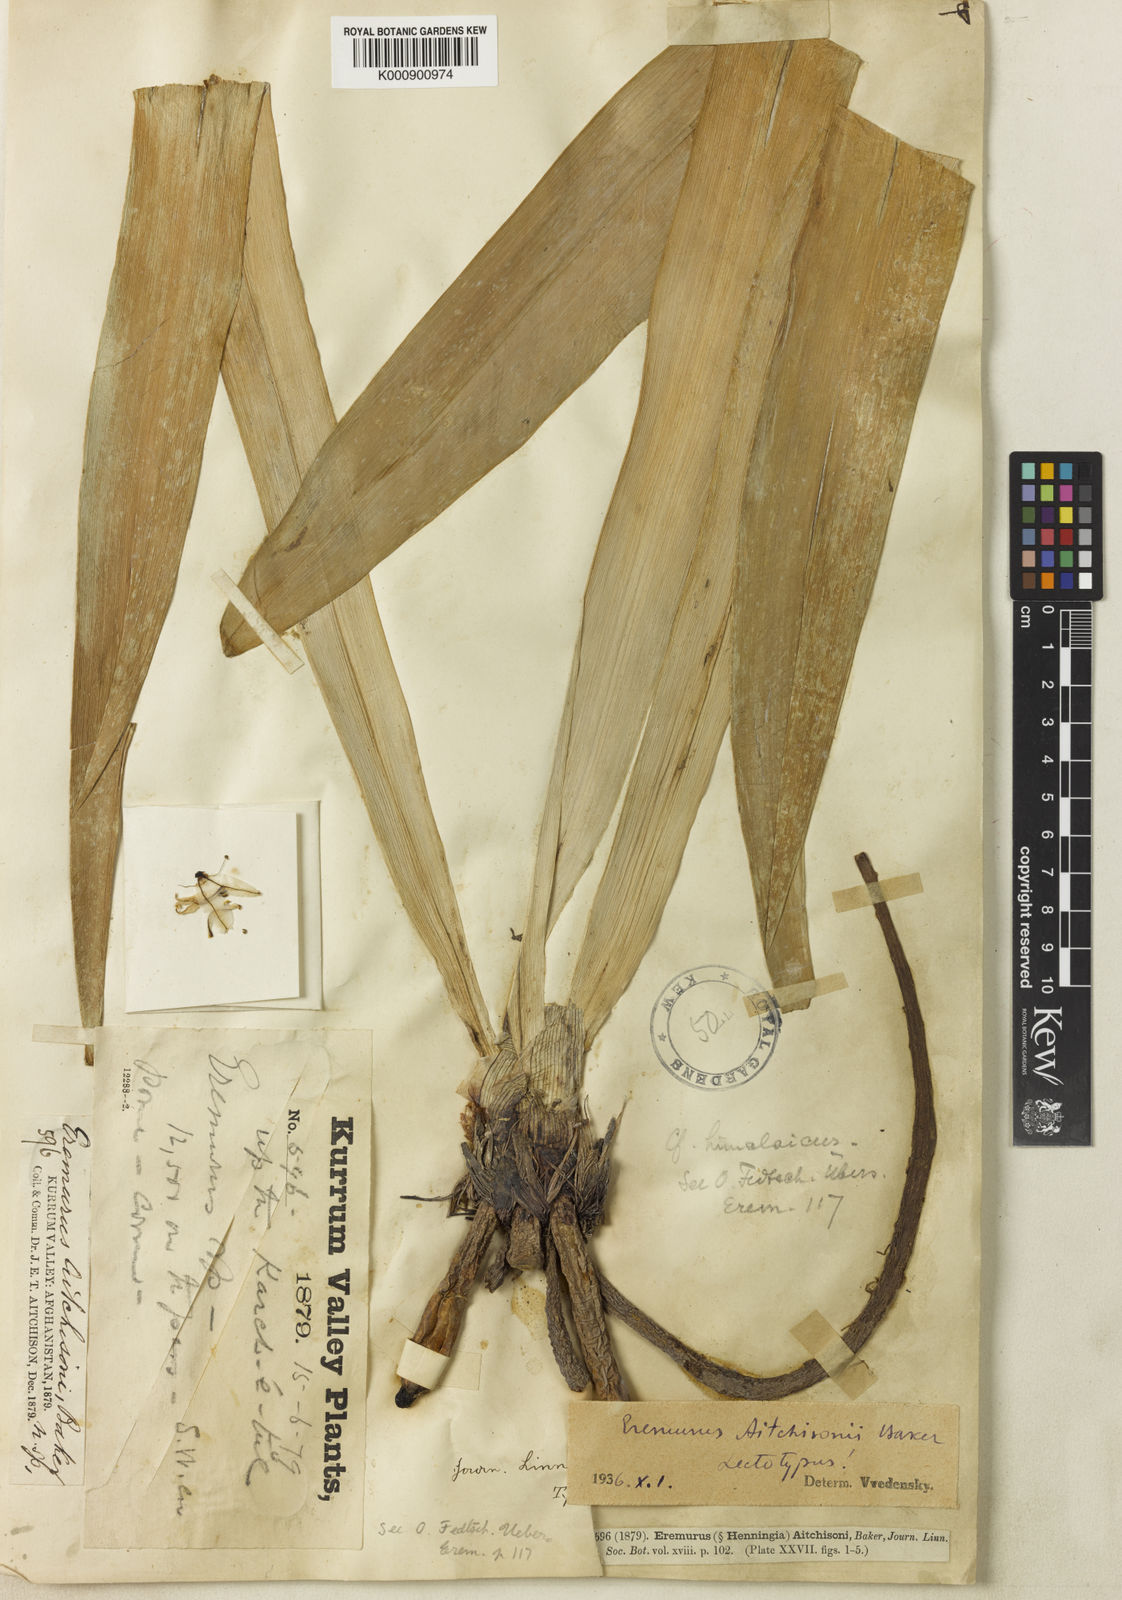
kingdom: Plantae
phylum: Tracheophyta
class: Liliopsida
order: Asparagales
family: Asphodelaceae
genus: Eremurus
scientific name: Eremurus aitchisonii
